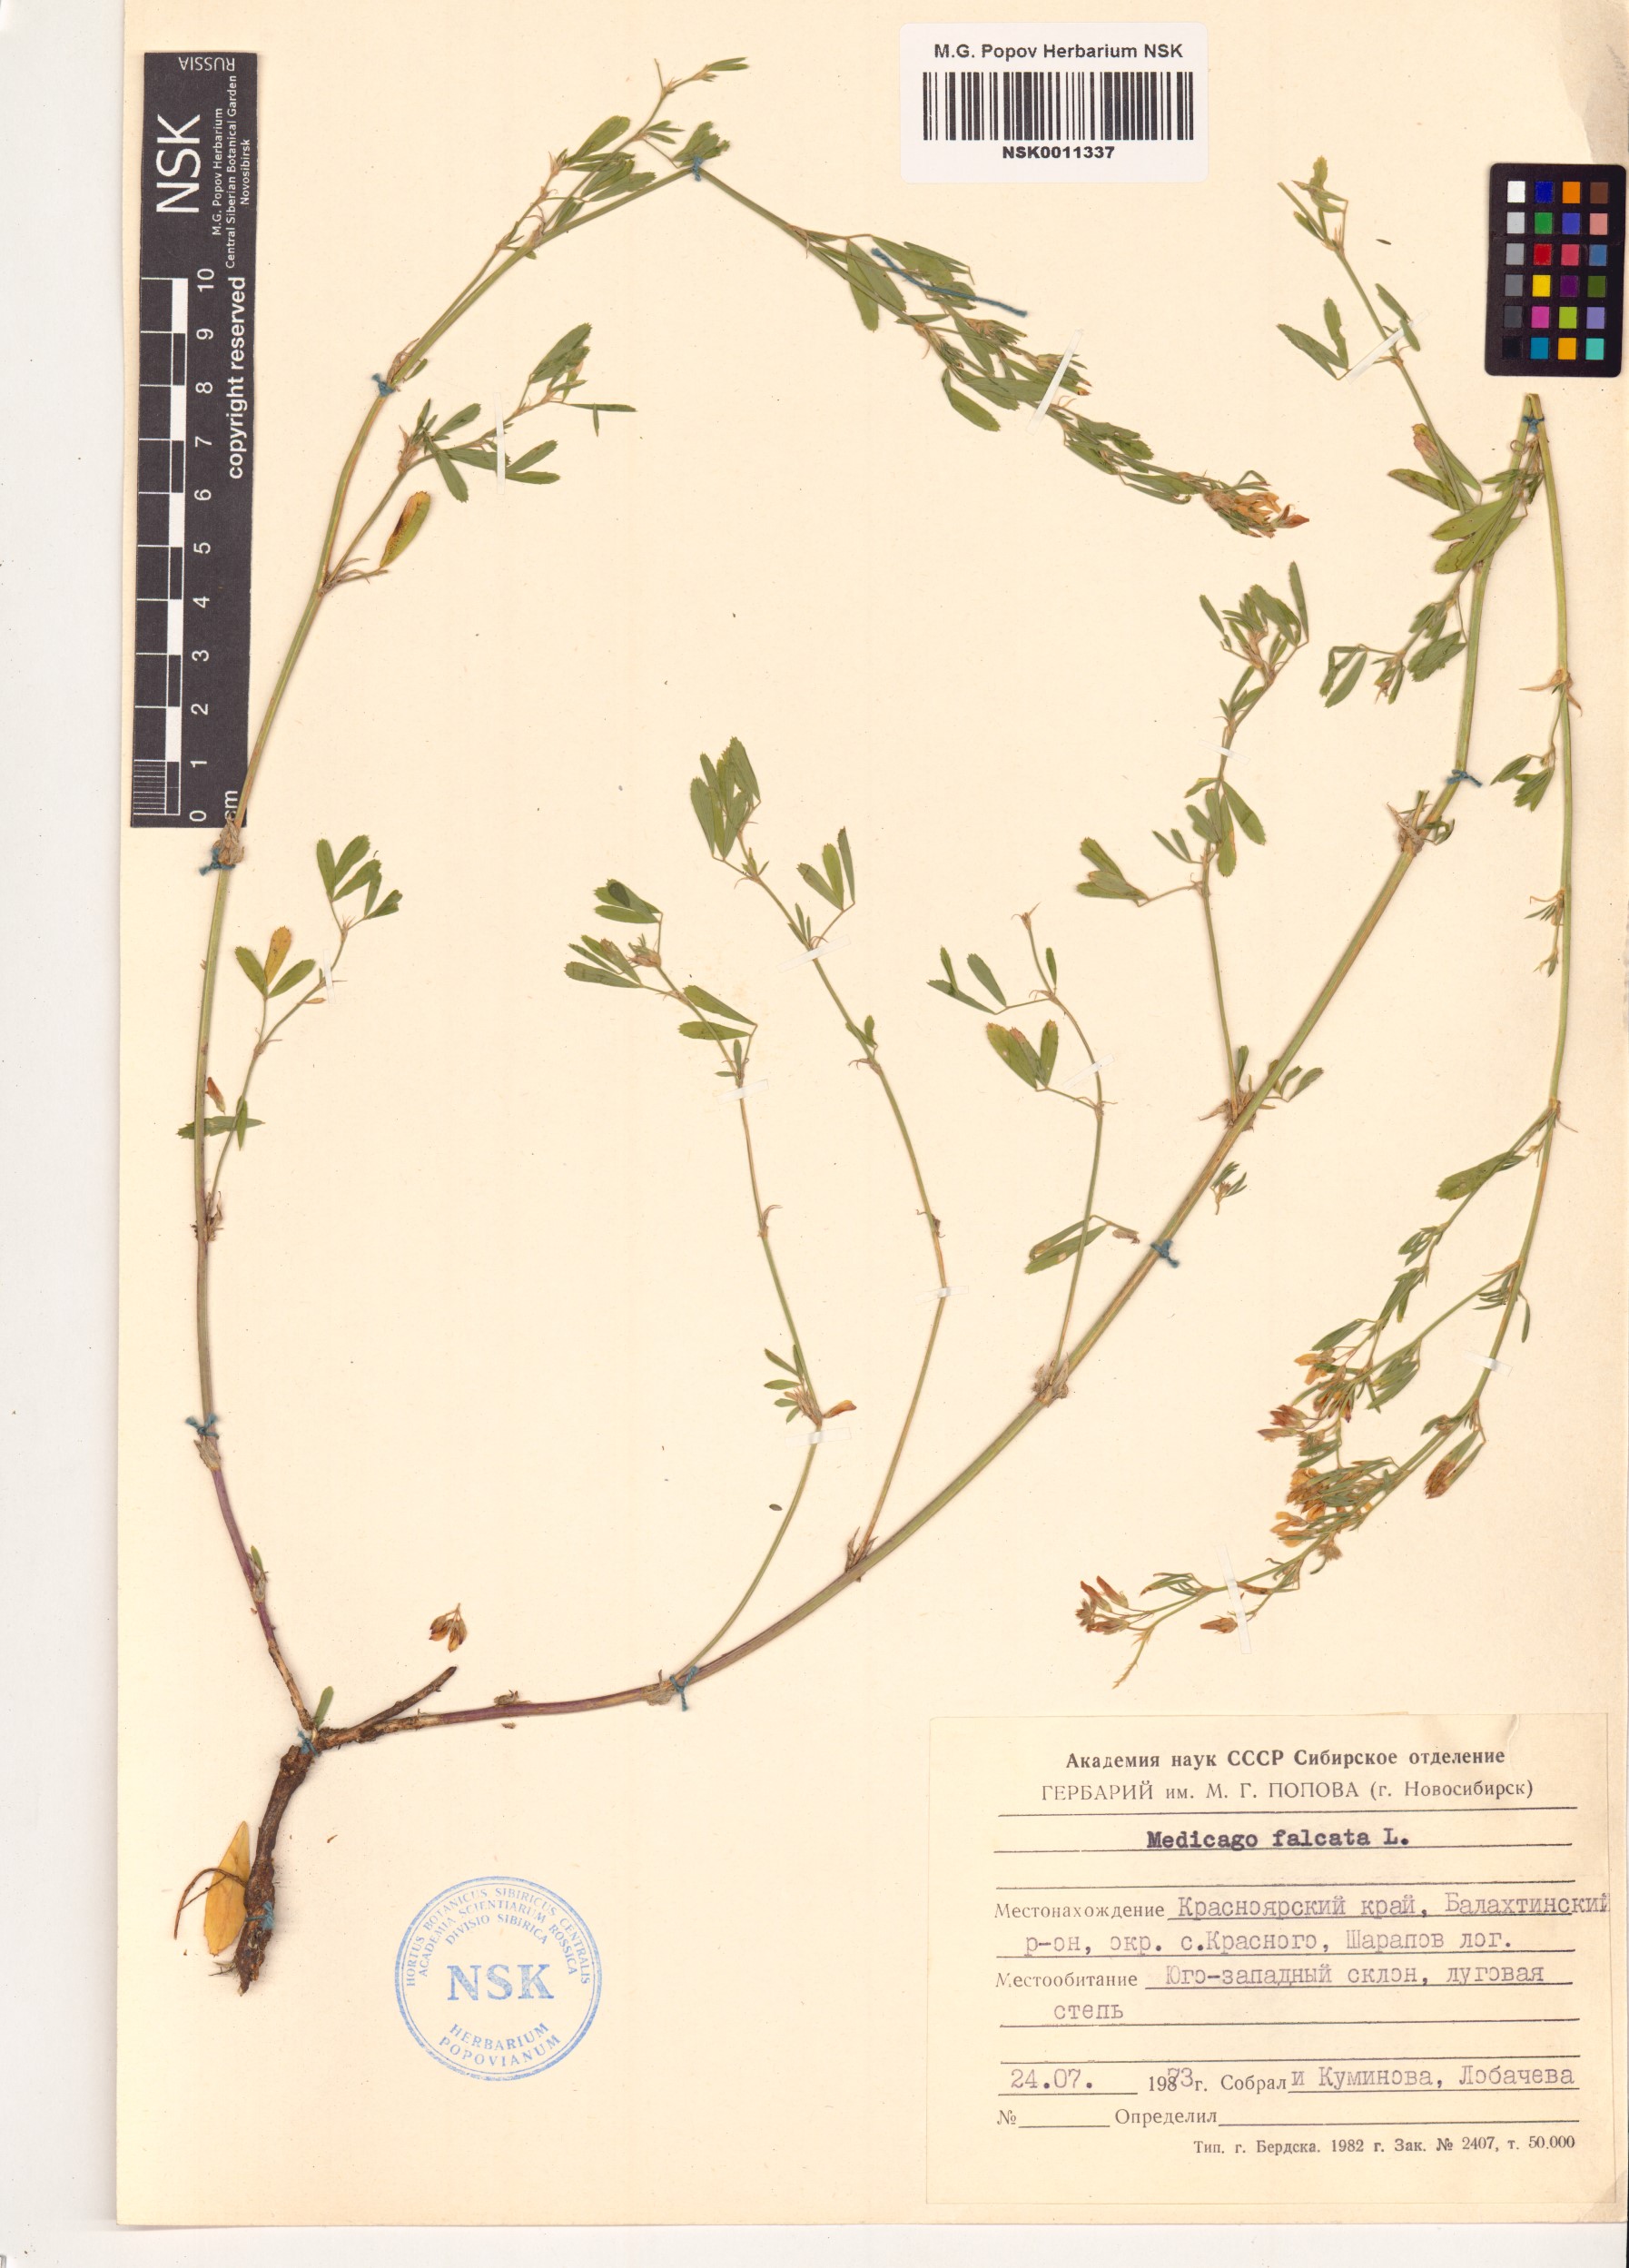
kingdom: Plantae
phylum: Tracheophyta
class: Magnoliopsida
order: Fabales
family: Fabaceae
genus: Medicago
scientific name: Medicago falcata
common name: Sickle medick
